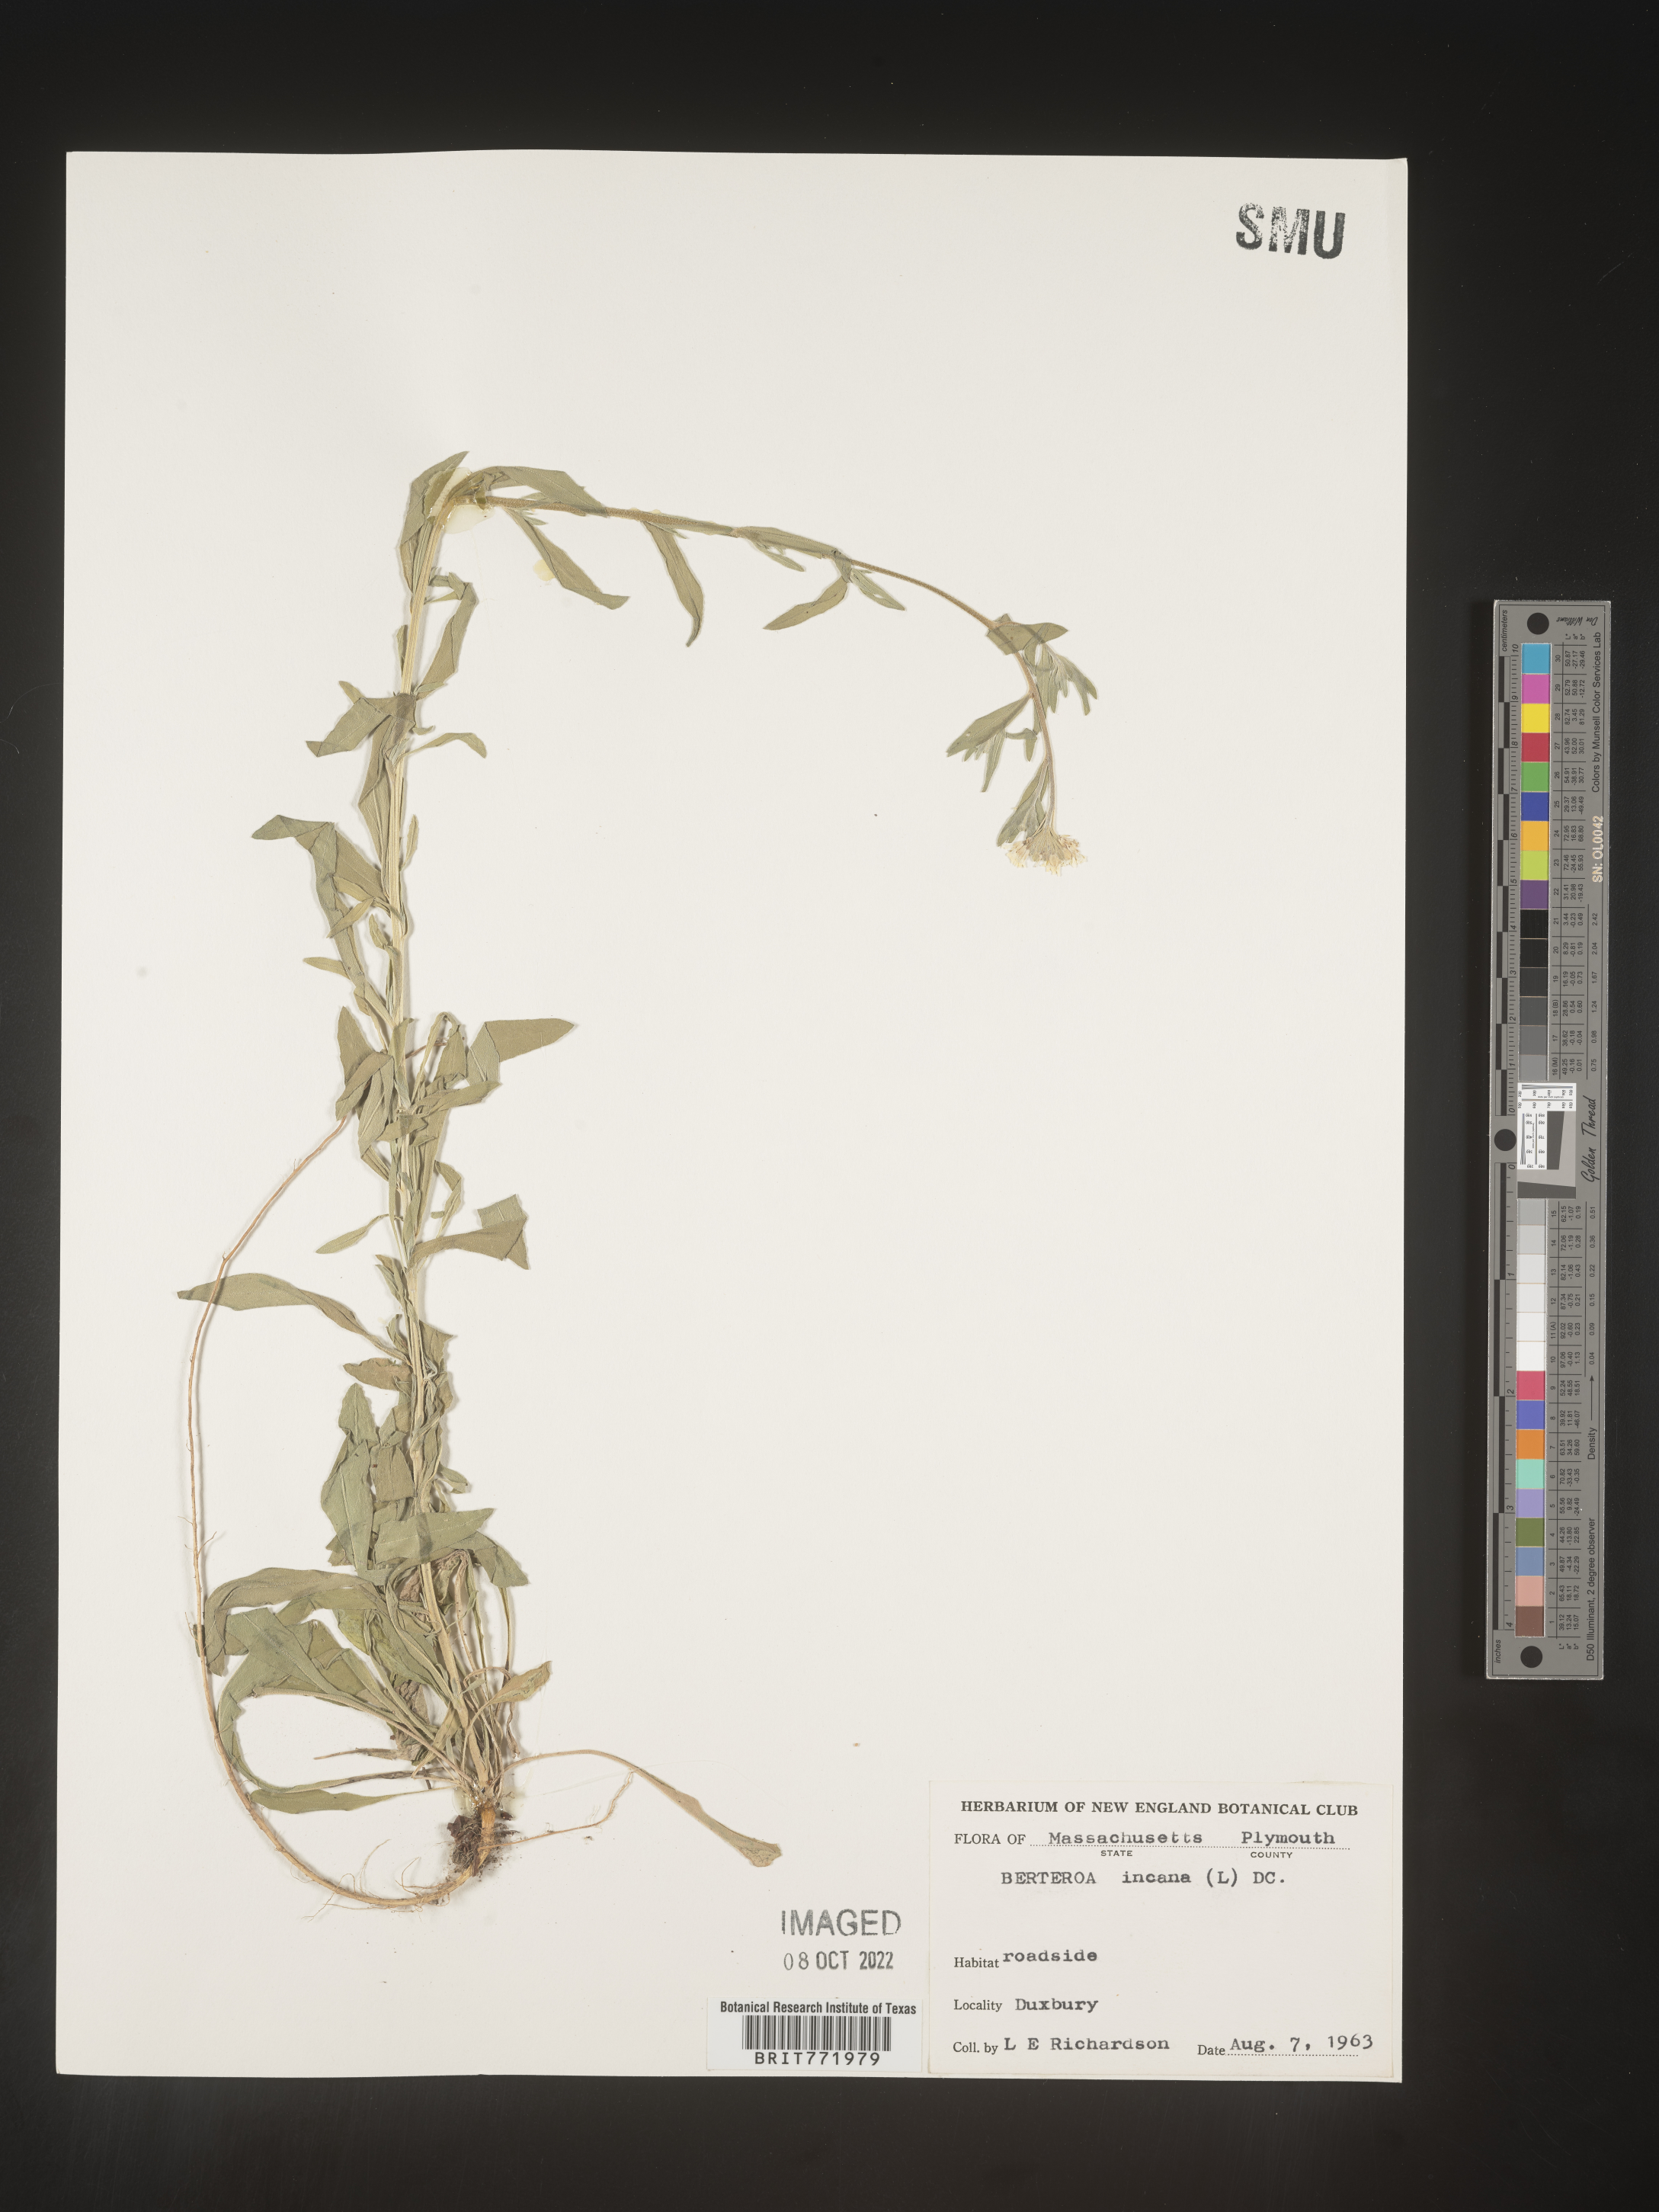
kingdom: Plantae
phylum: Tracheophyta
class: Magnoliopsida
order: Brassicales
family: Brassicaceae
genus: Berteroa
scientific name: Berteroa incana
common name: Hoary alison
